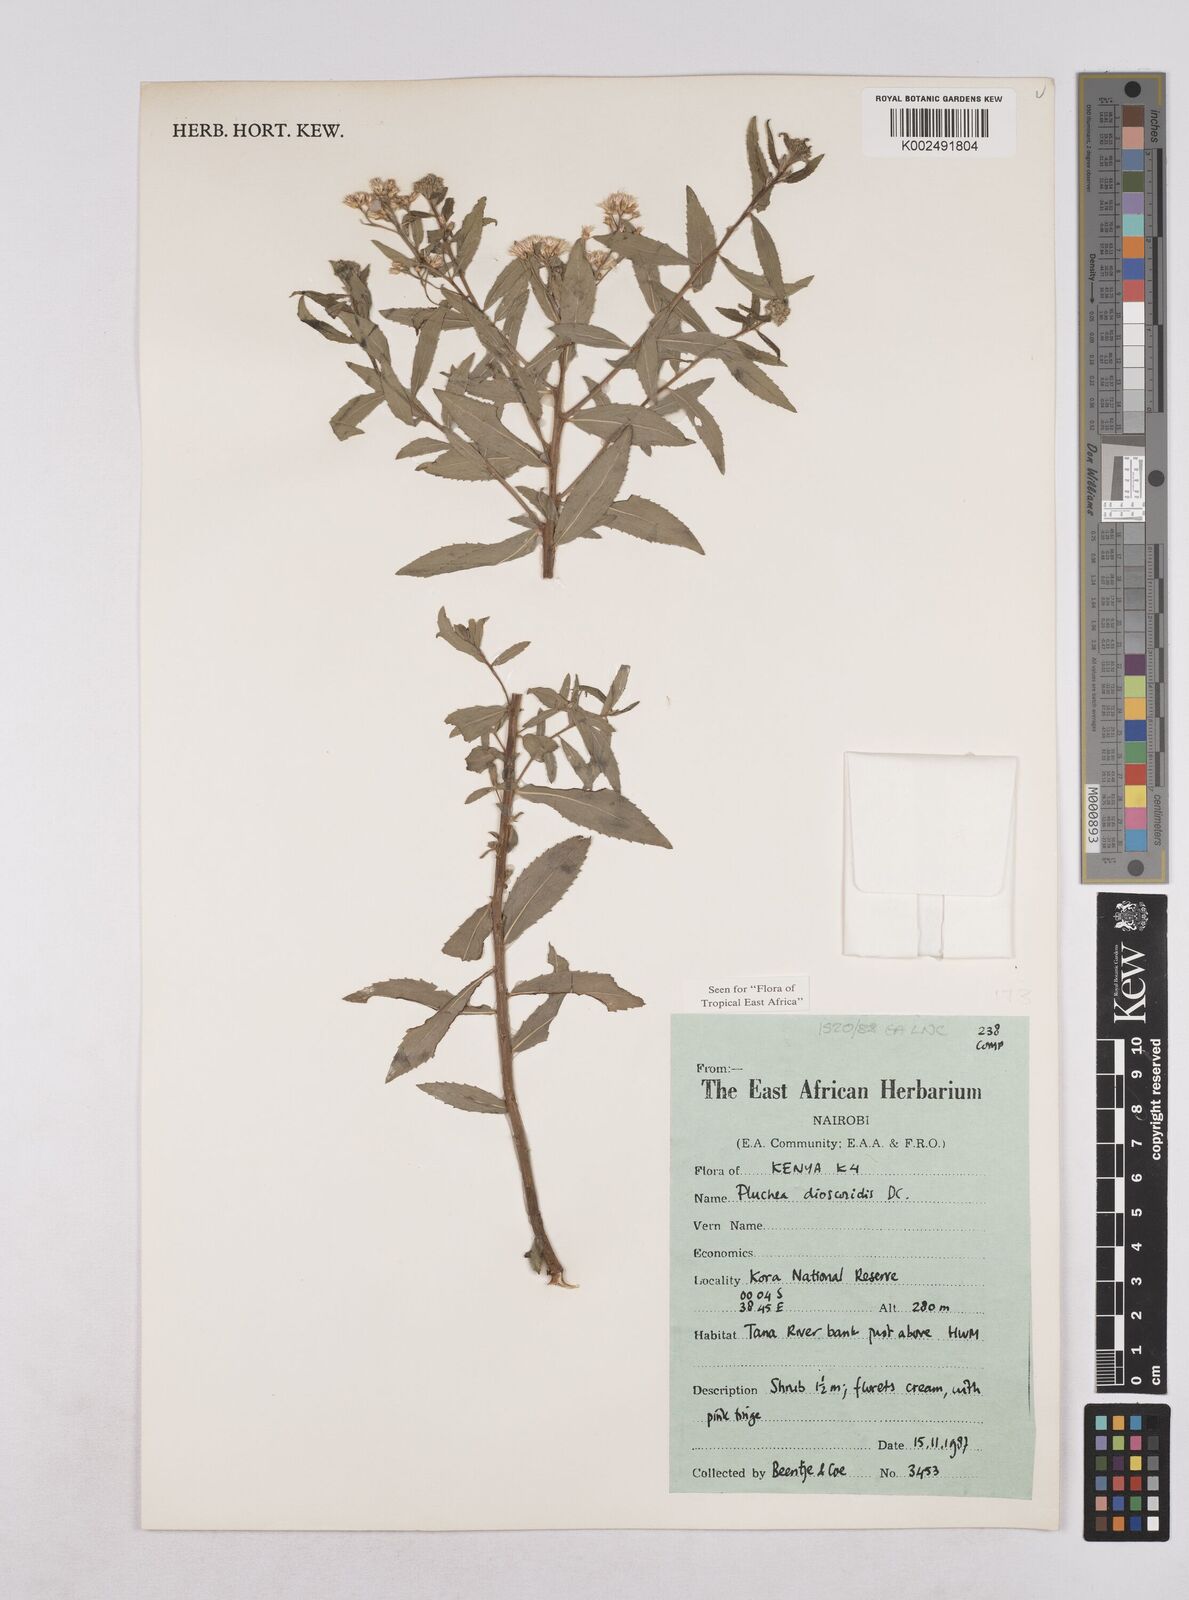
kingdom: Plantae
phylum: Tracheophyta
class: Magnoliopsida
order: Asterales
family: Asteraceae
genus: Pluchea
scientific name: Pluchea dioscoridis
